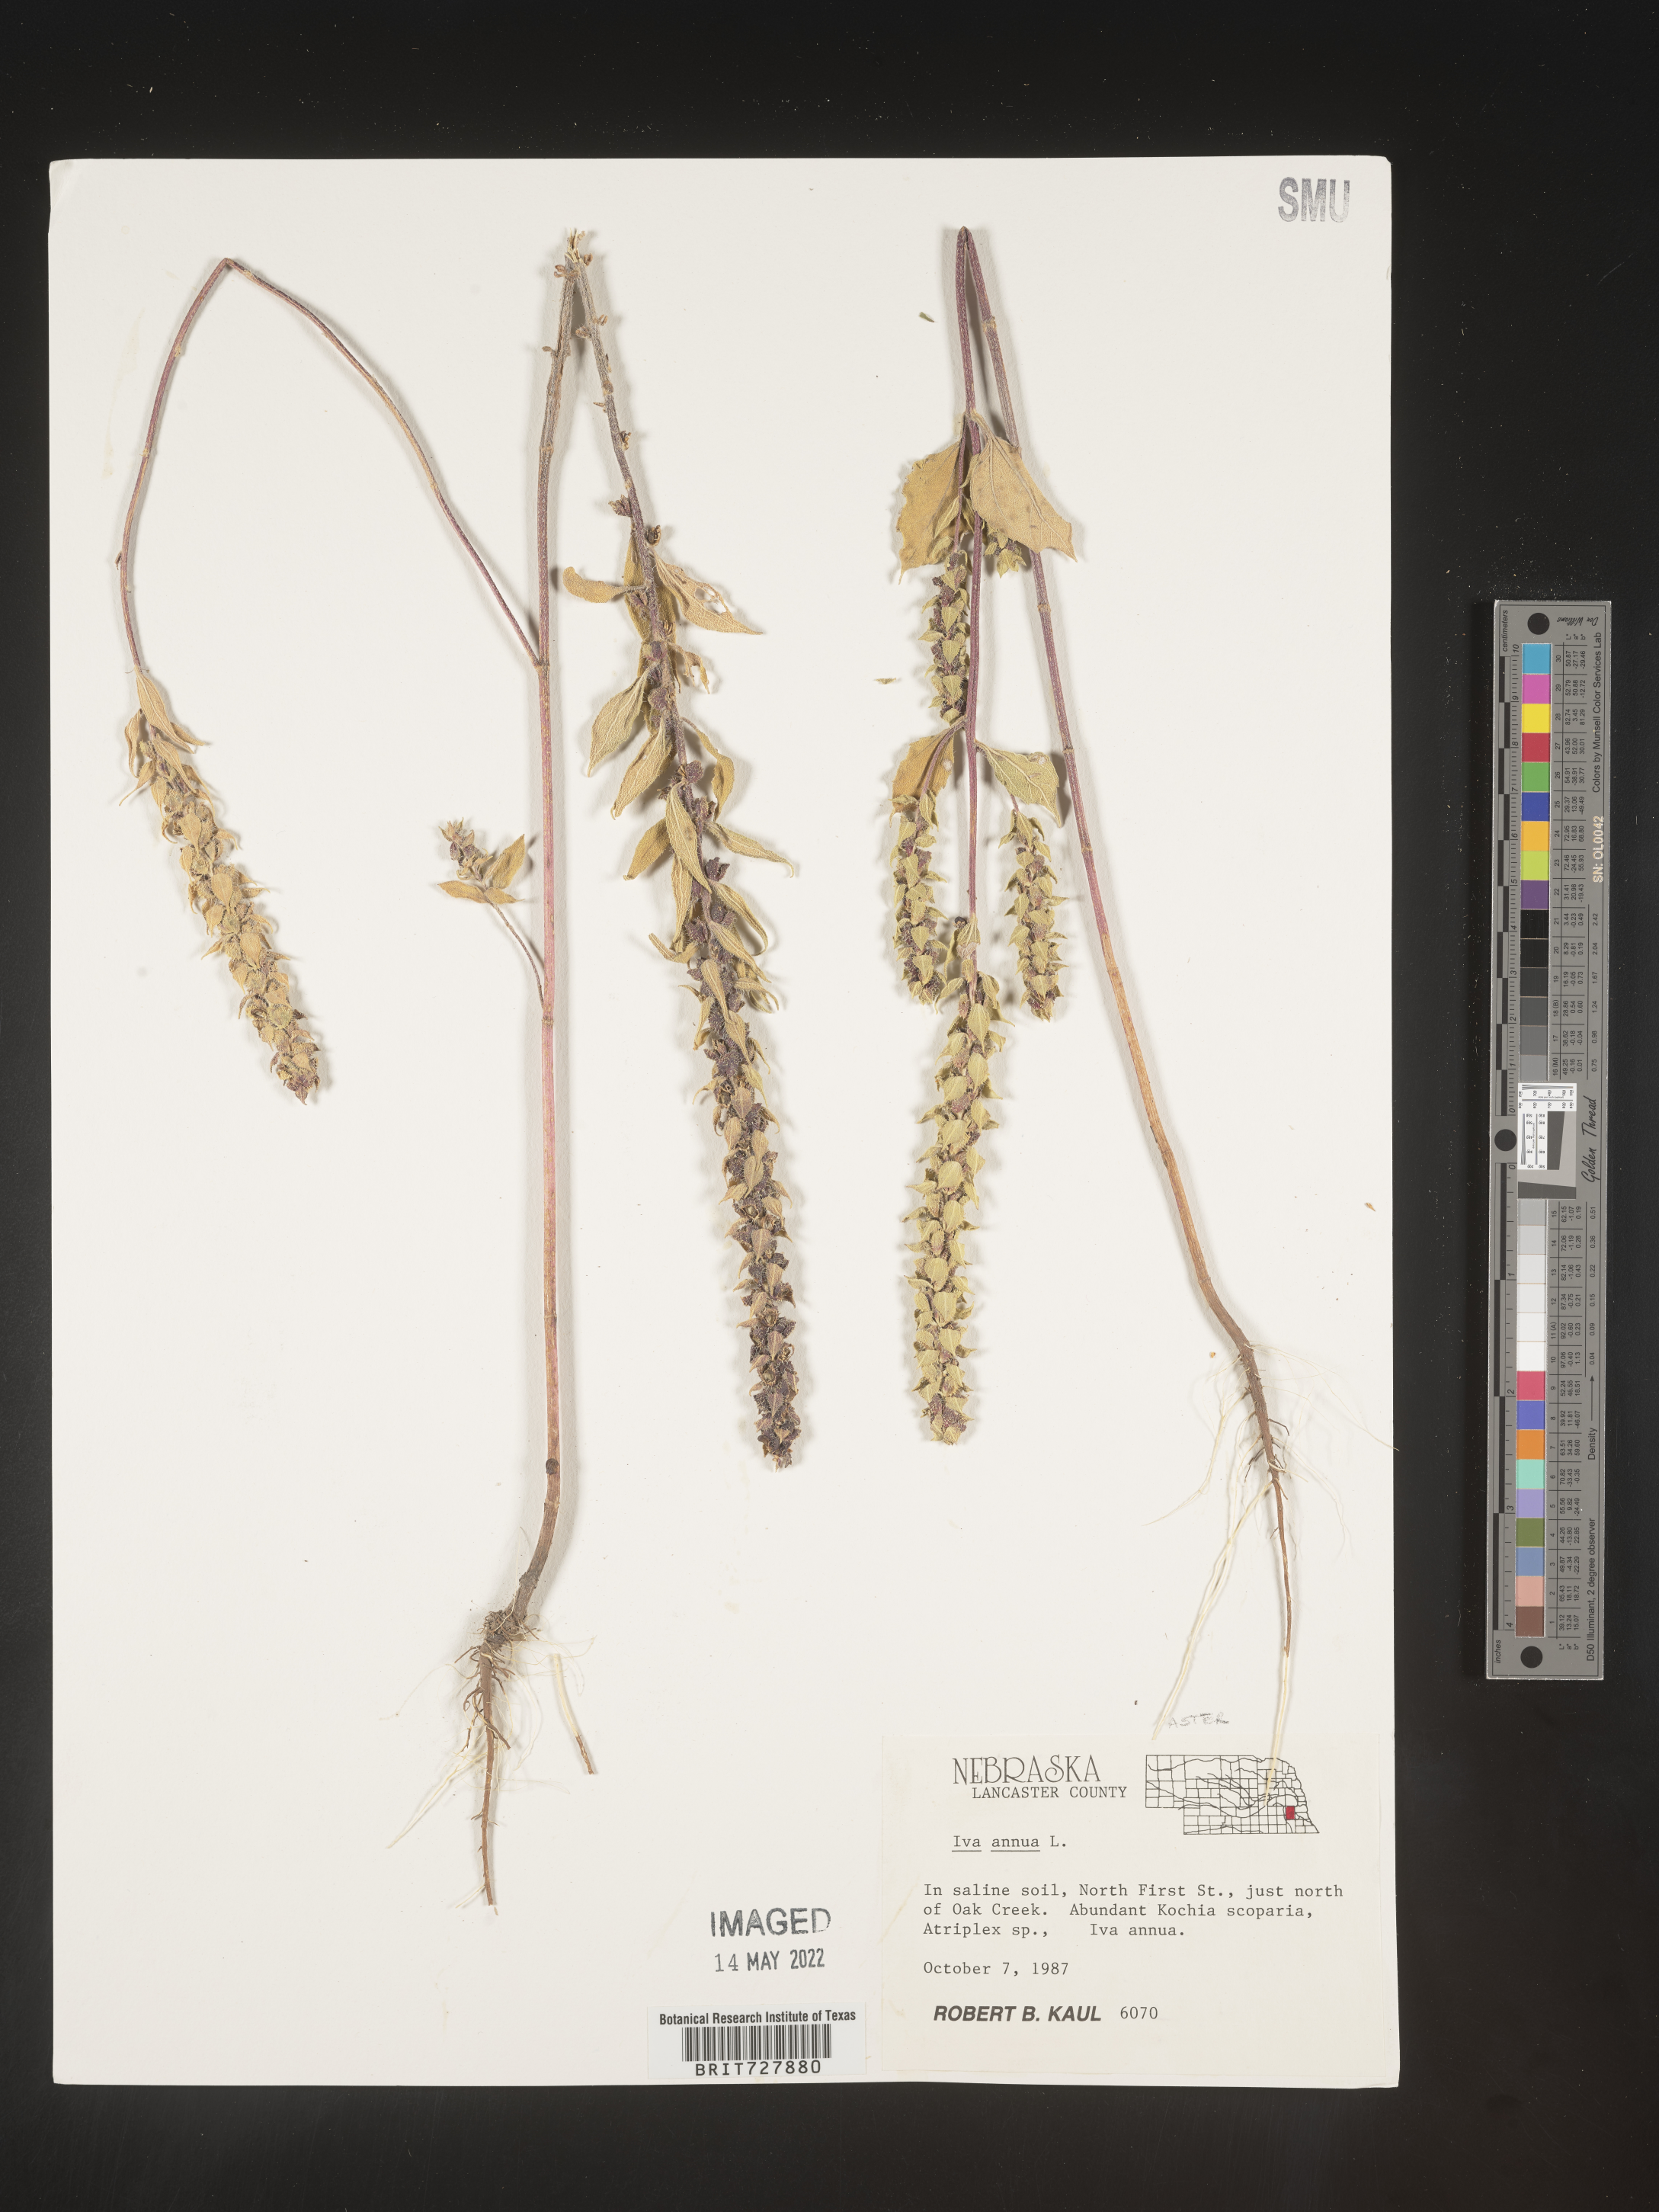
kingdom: Plantae
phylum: Tracheophyta
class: Magnoliopsida
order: Asterales
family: Asteraceae
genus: Iva
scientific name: Iva annua
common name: Marsh-elder
